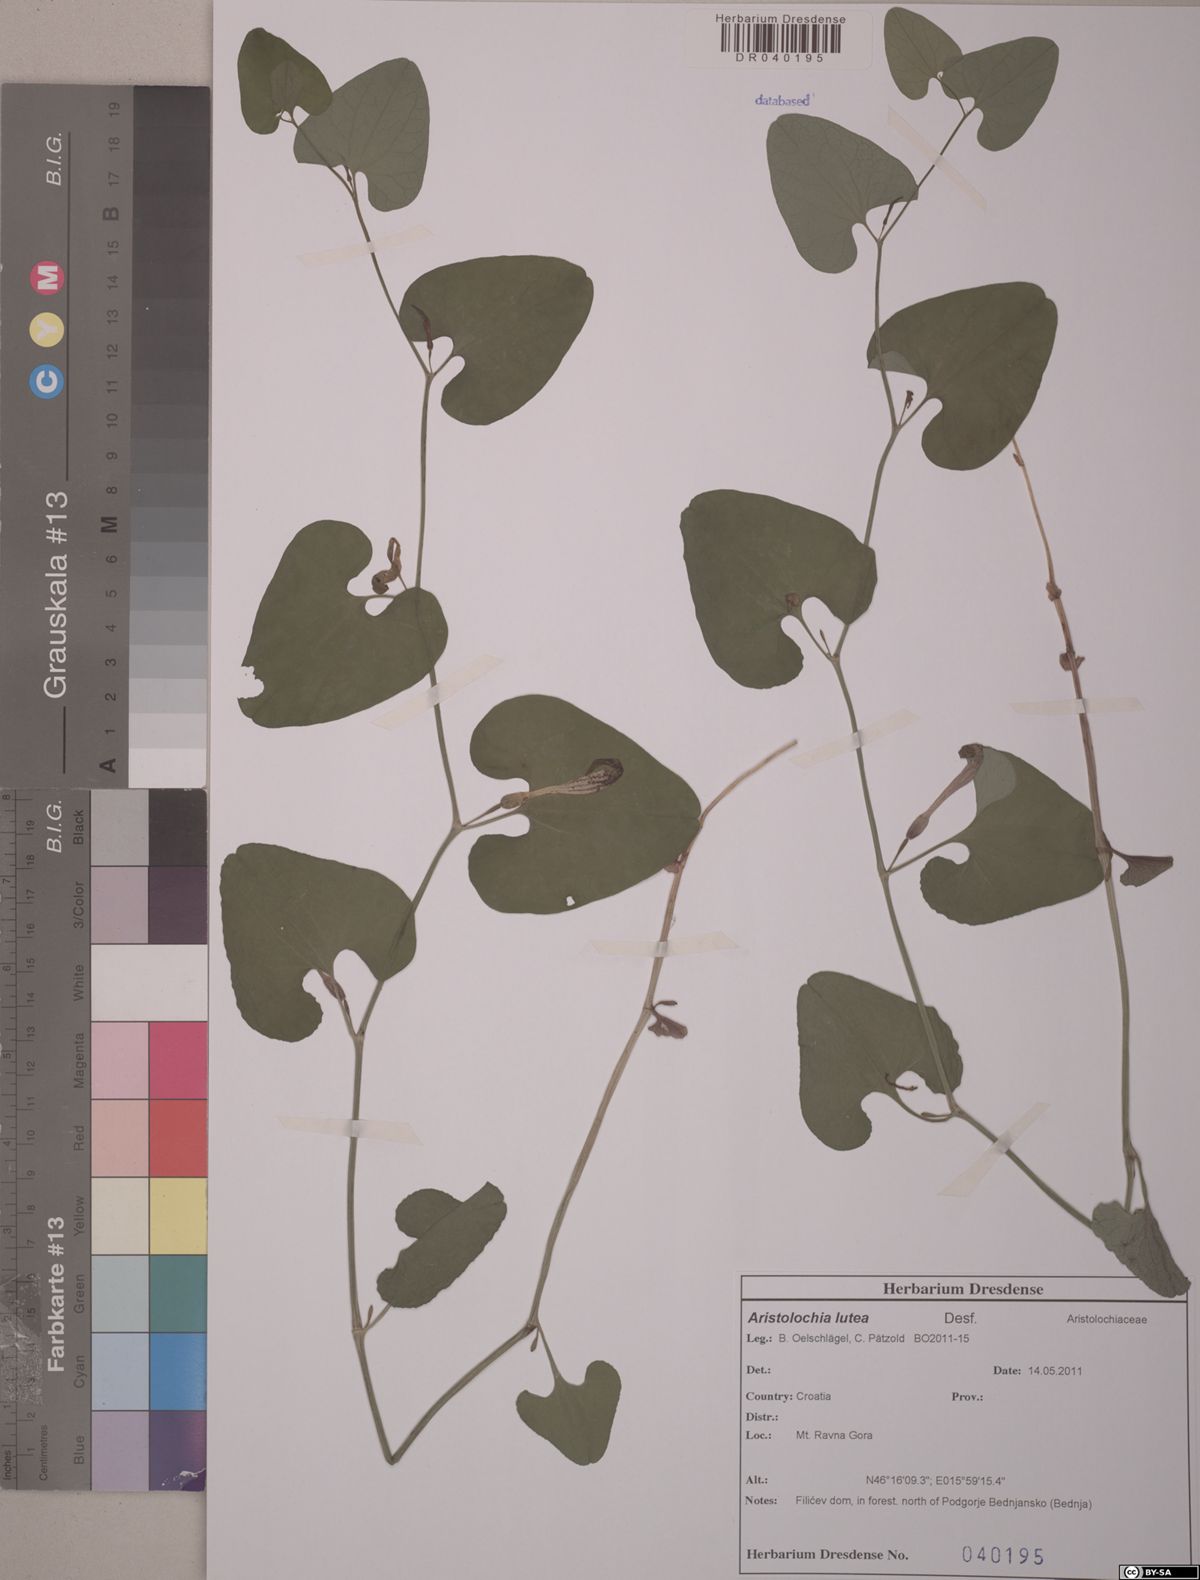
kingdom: Plantae
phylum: Tracheophyta
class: Magnoliopsida
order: Piperales
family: Aristolochiaceae
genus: Aristolochia
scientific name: Aristolochia lutea
